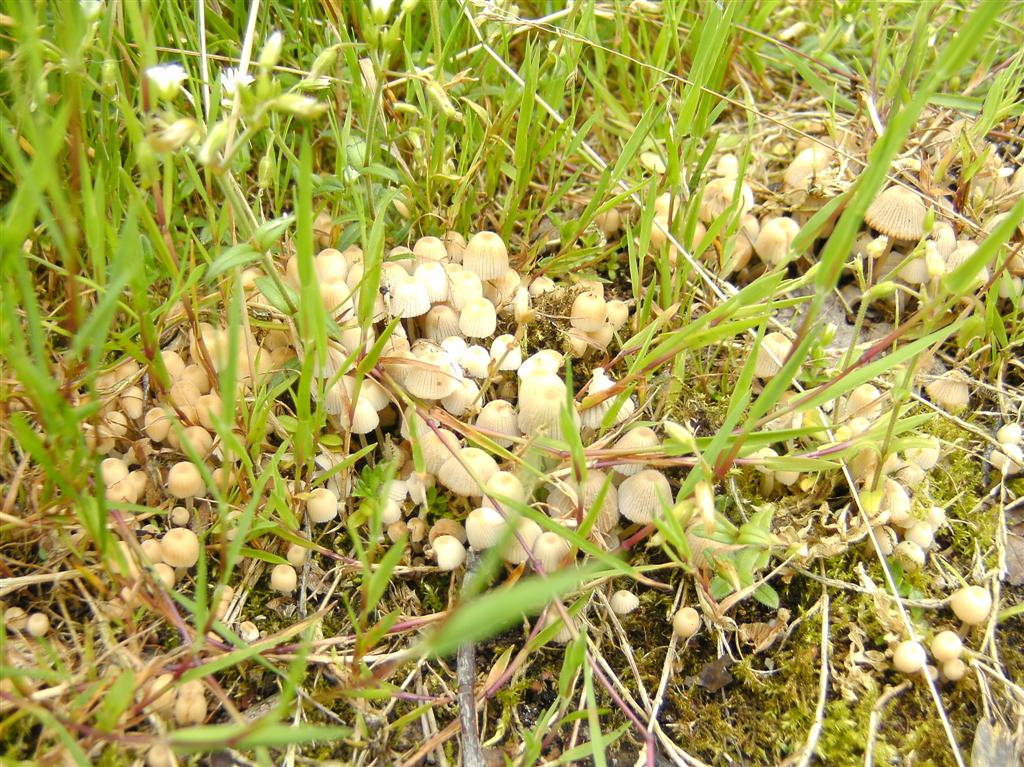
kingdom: Fungi
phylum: Basidiomycota
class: Agaricomycetes
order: Agaricales
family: Psathyrellaceae
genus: Coprinellus
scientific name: Coprinellus disseminatus
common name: bredsået blækhat
